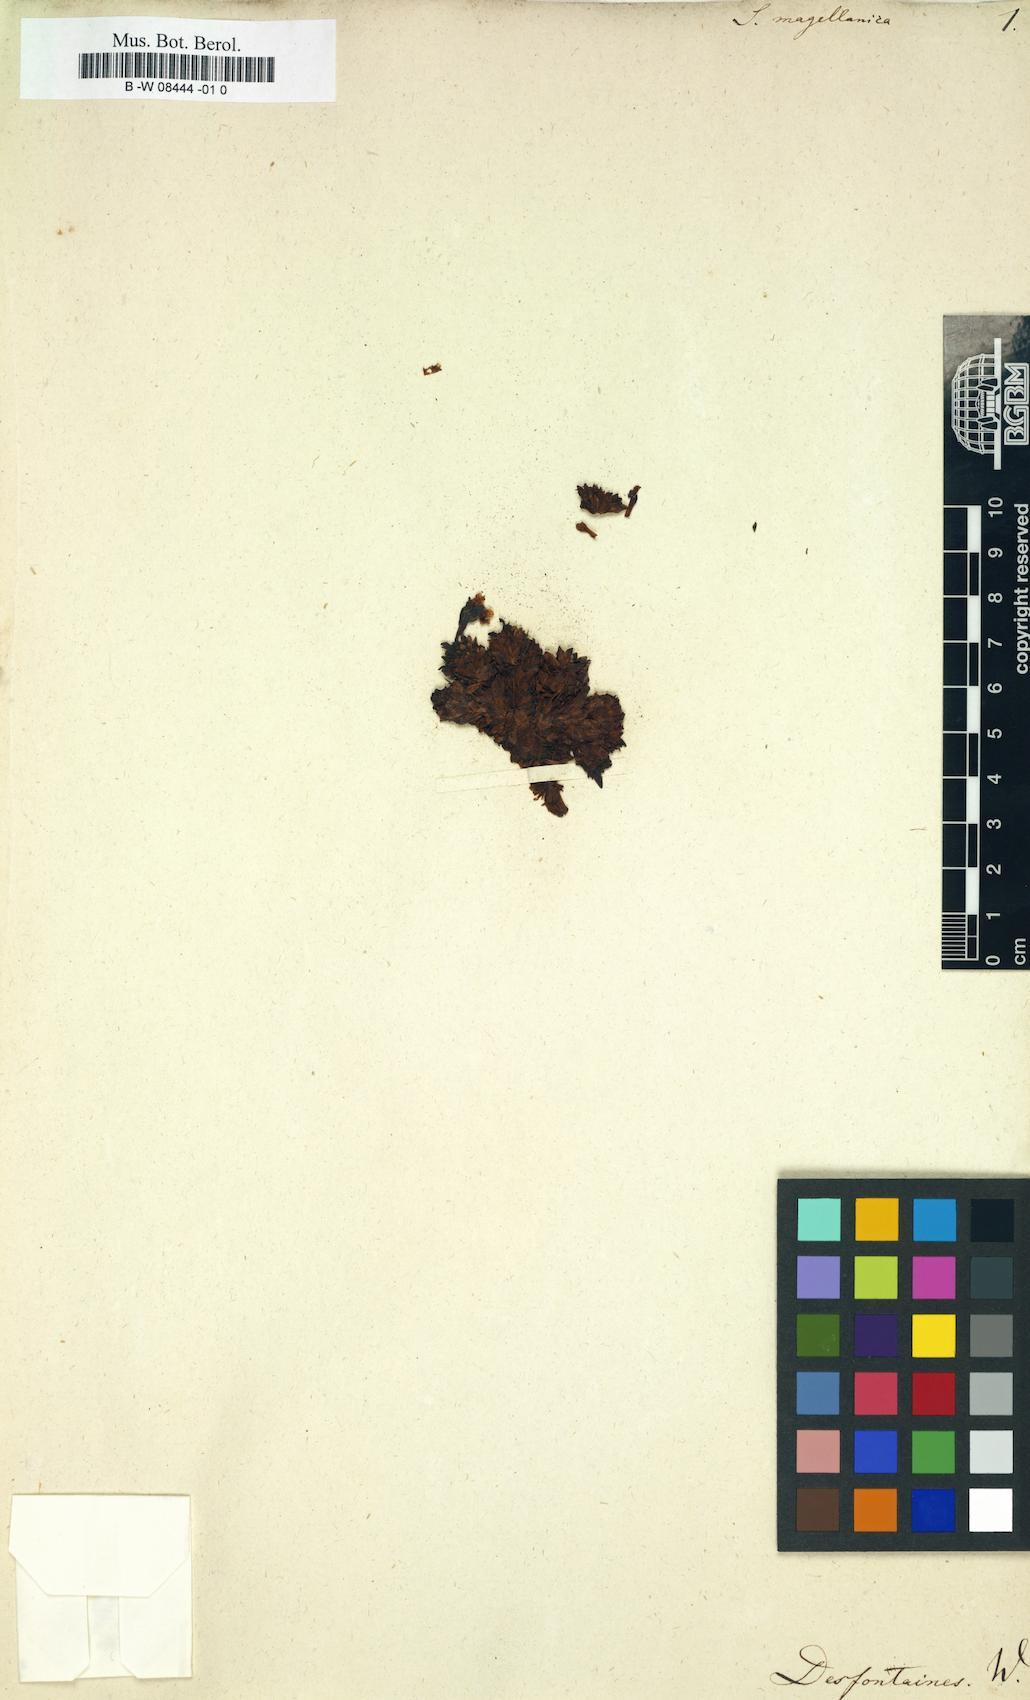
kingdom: Plantae
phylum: Tracheophyta
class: Magnoliopsida
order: Saxifragales
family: Saxifragaceae
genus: Saxifraga
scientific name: Saxifraga magellanica
